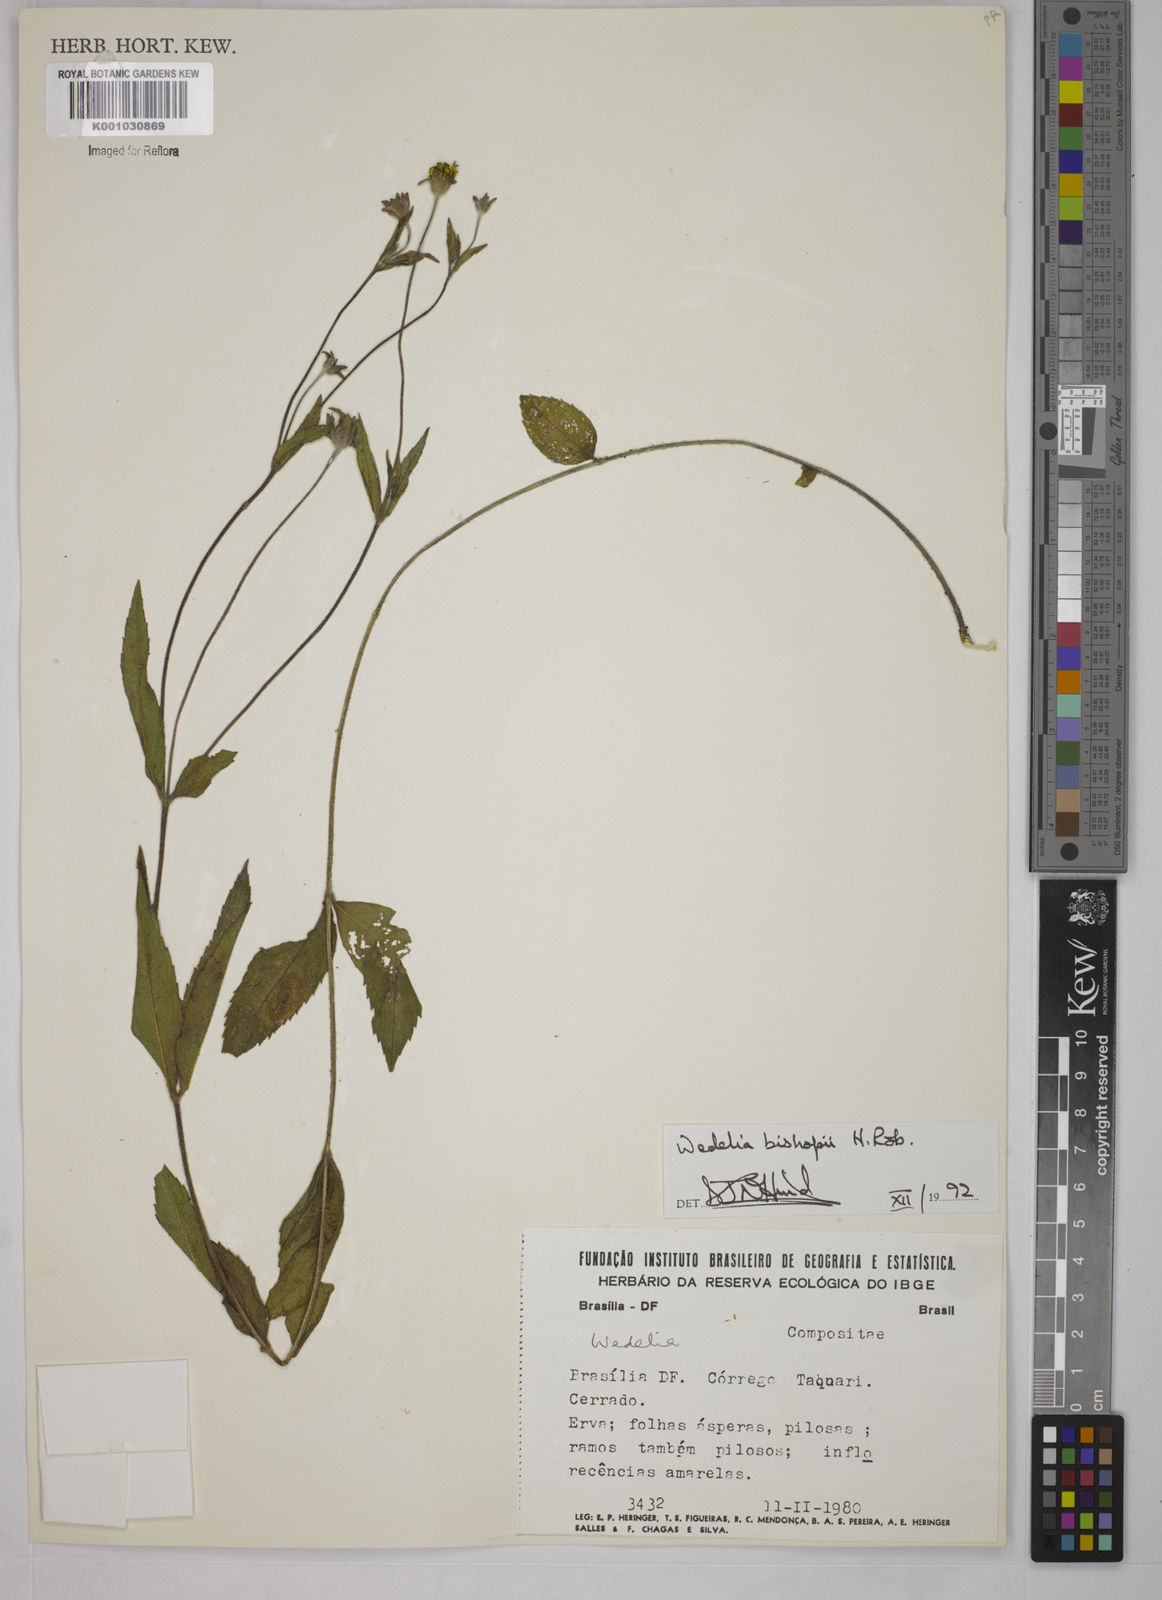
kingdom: Plantae
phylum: Tracheophyta
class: Magnoliopsida
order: Asterales
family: Asteraceae
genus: Wedelia
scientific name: Wedelia bishopii
